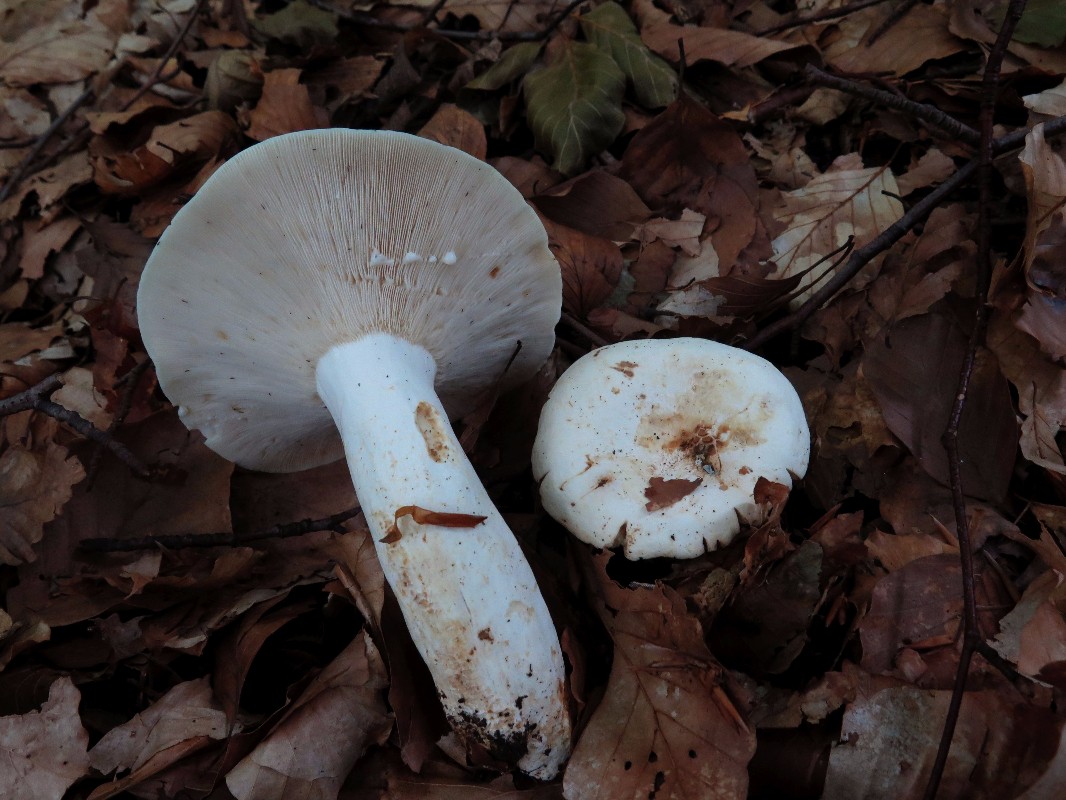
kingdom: Fungi
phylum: Basidiomycota
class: Agaricomycetes
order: Russulales
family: Russulaceae
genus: Lactifluus
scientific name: Lactifluus piperatus
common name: peber-mælkehat
